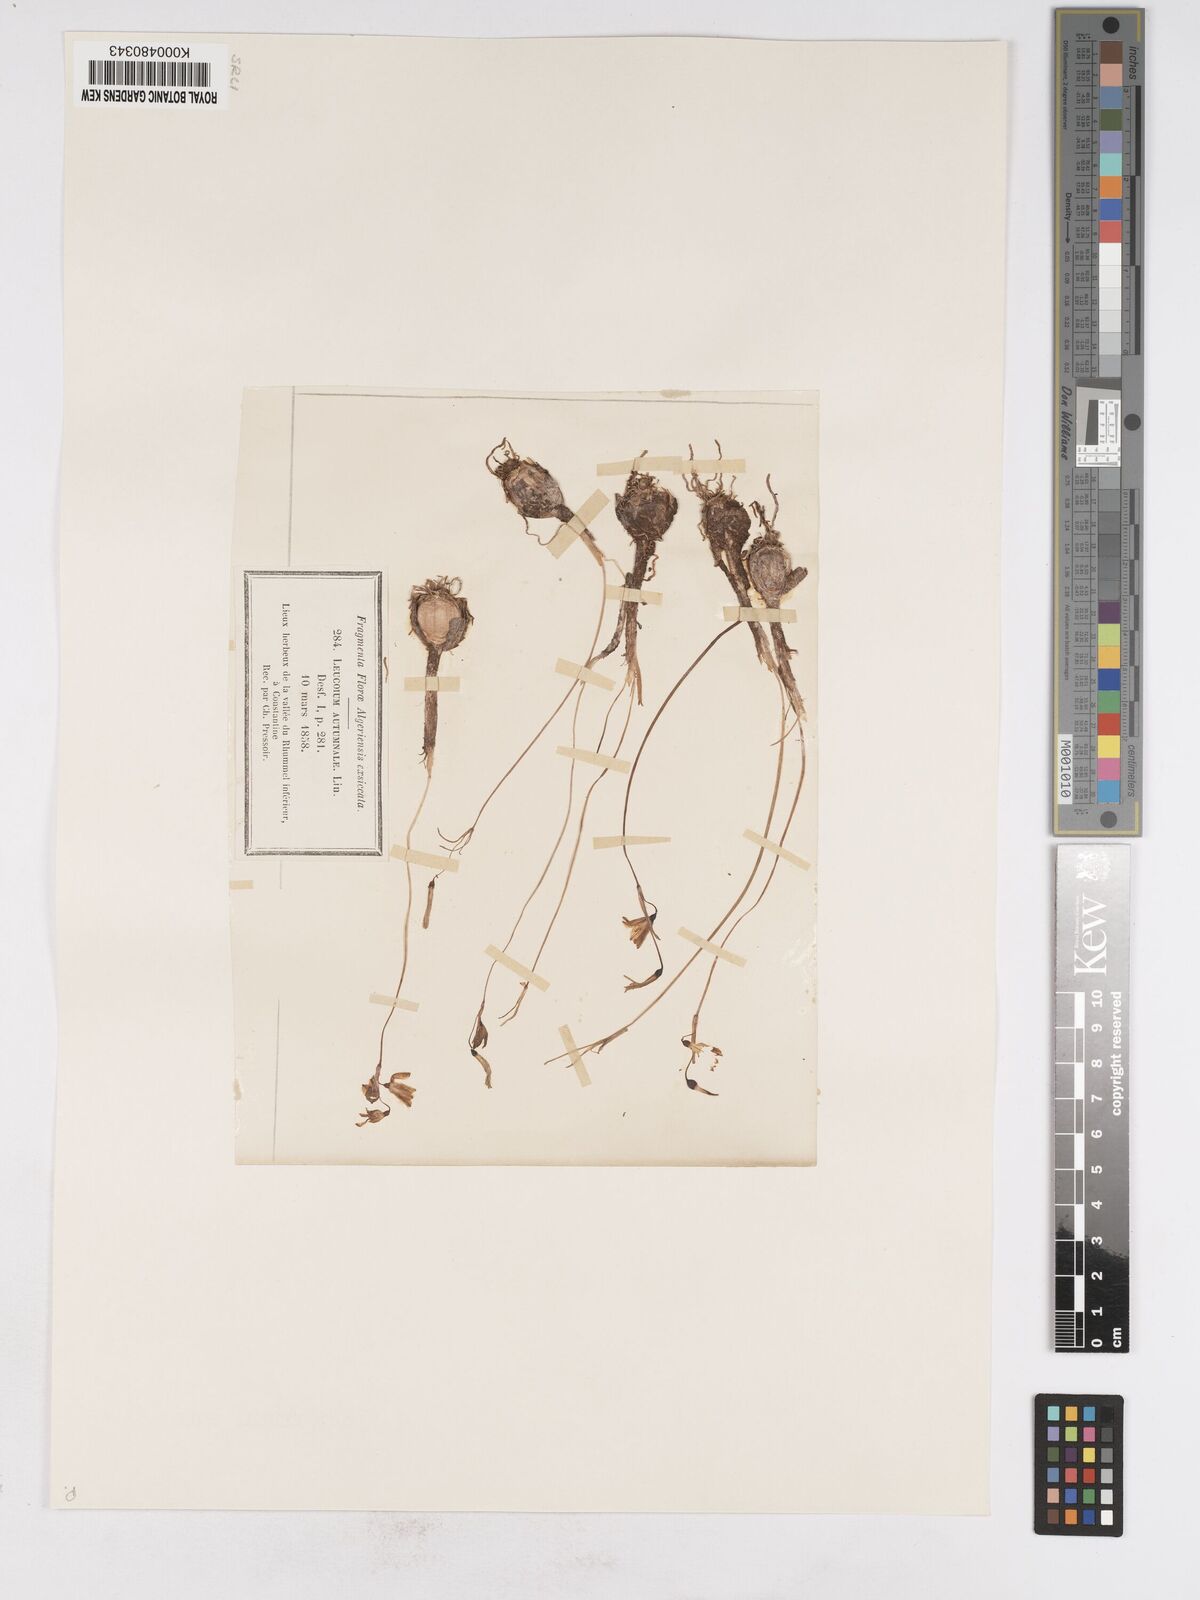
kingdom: Plantae
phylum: Tracheophyta
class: Liliopsida
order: Asparagales
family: Amaryllidaceae
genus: Acis
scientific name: Acis autumnalis
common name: Autumn snowflake
